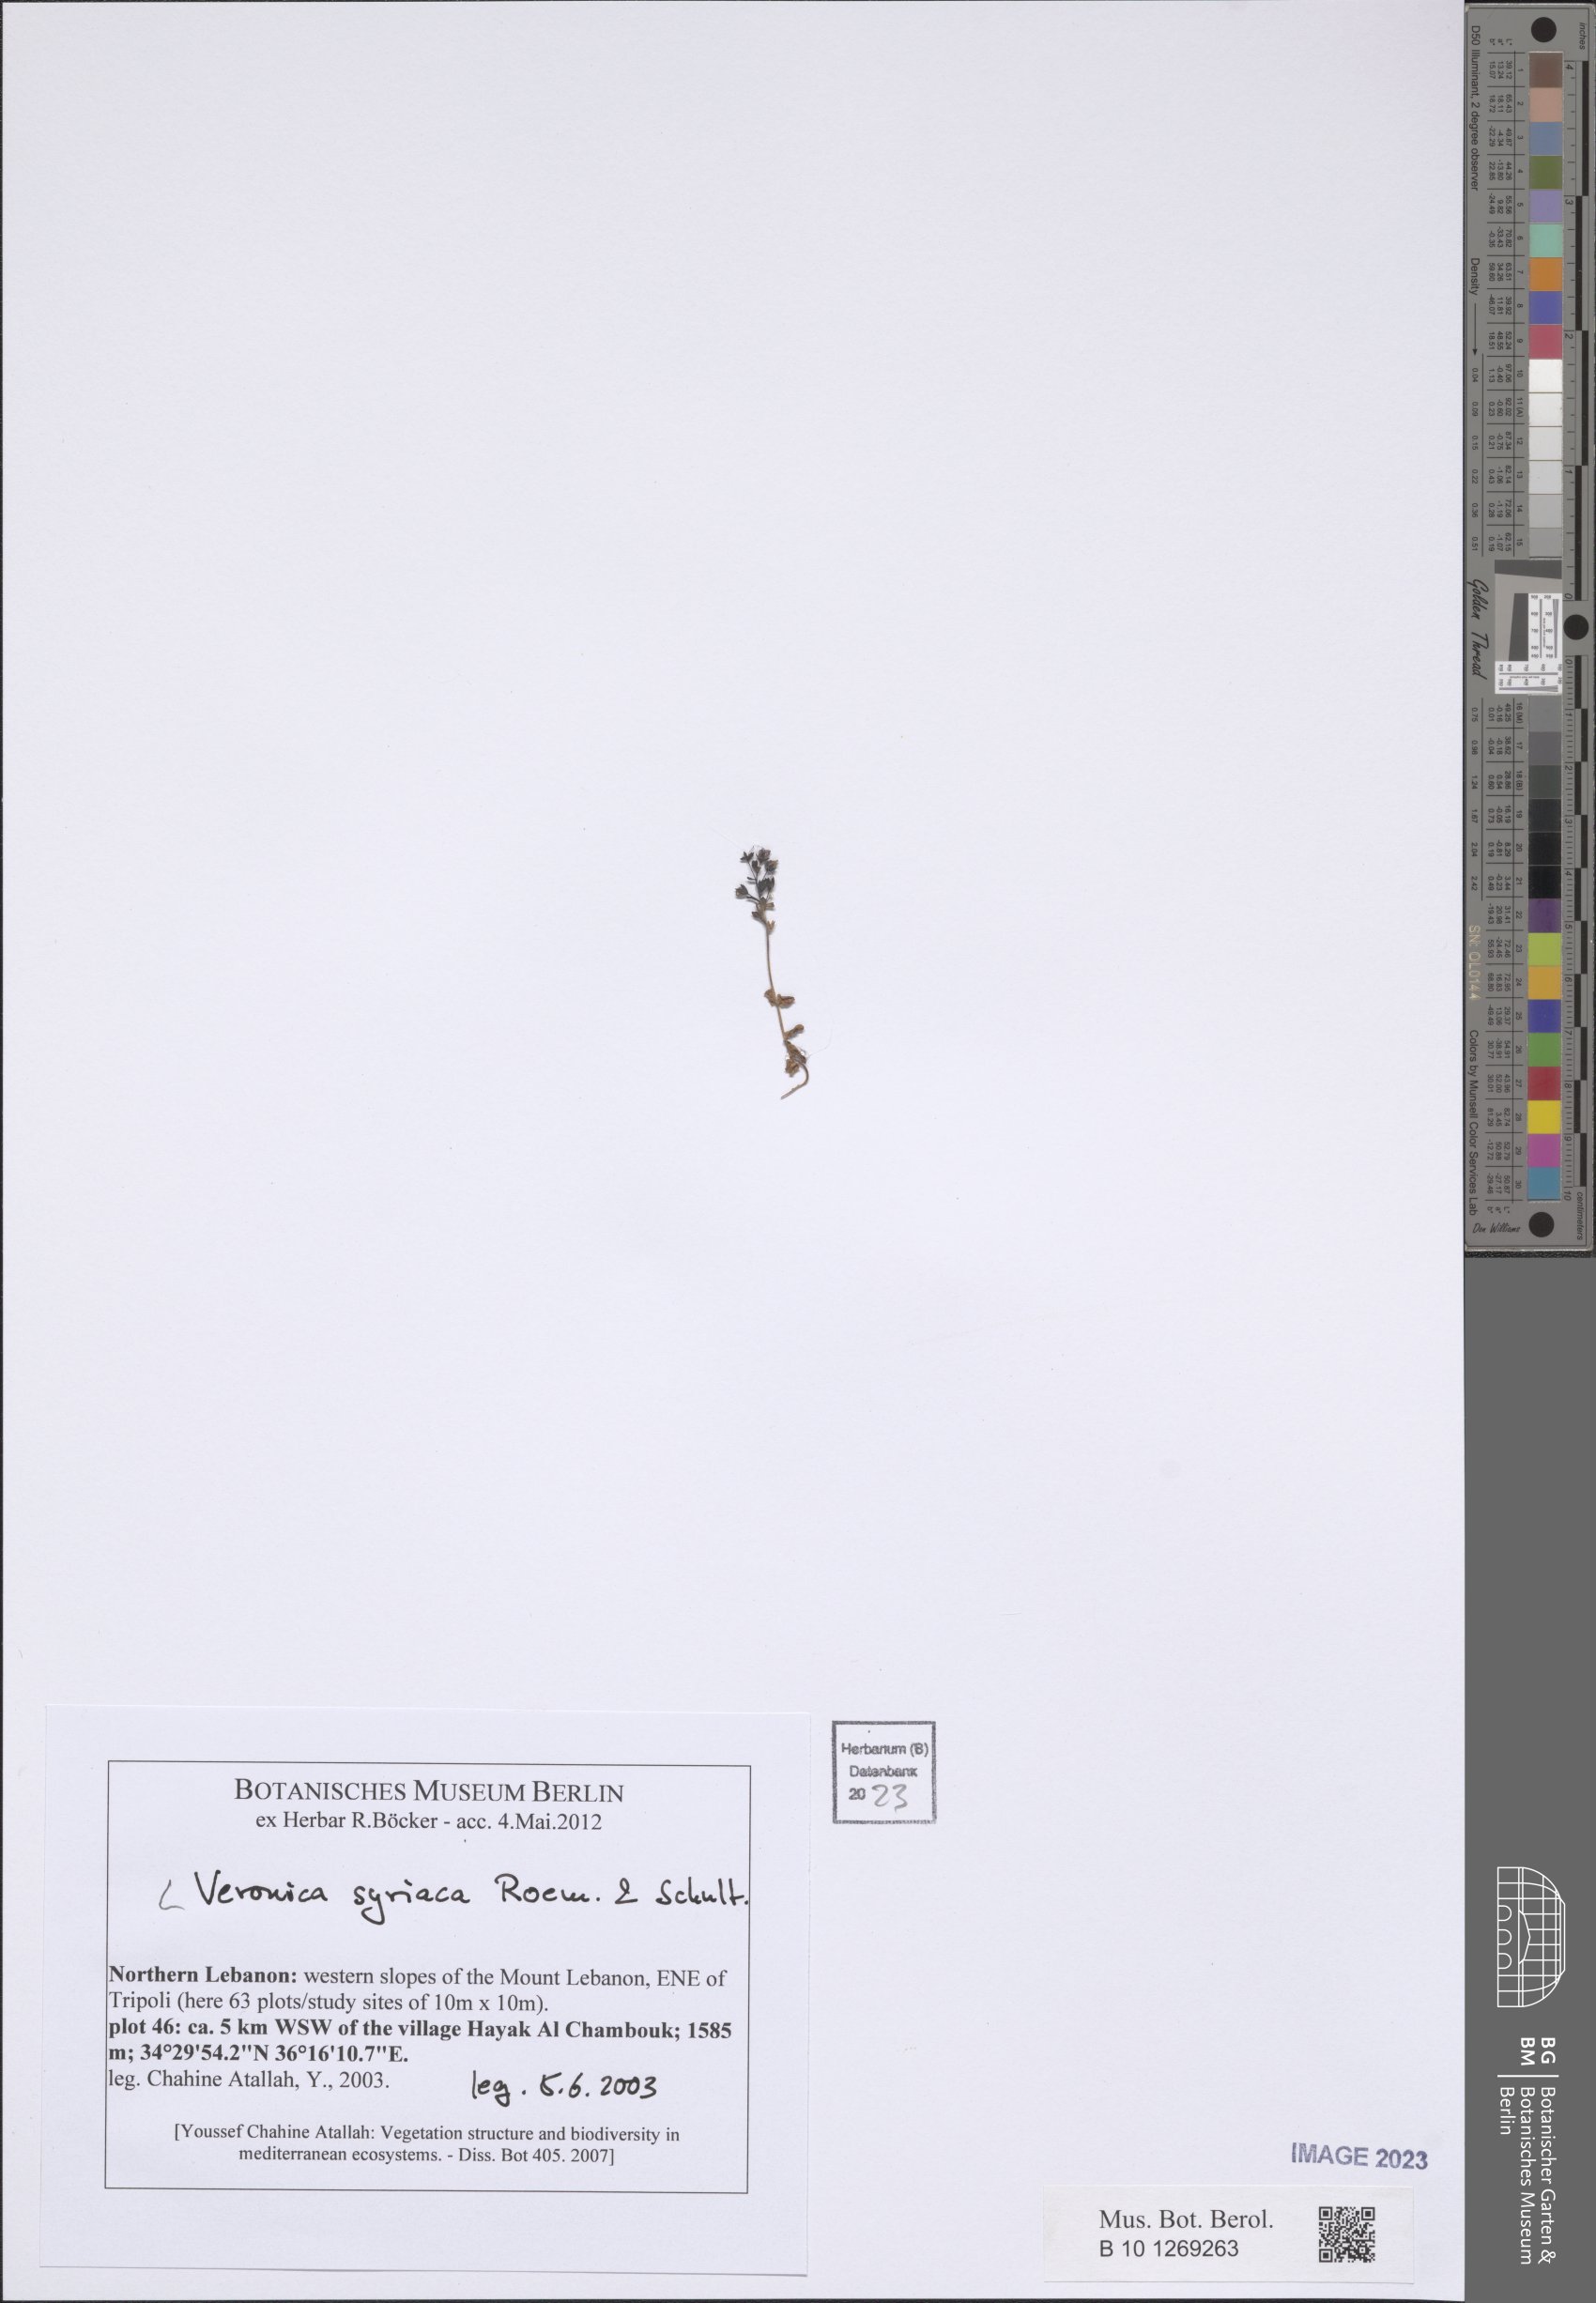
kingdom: Plantae
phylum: Tracheophyta
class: Magnoliopsida
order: Lamiales
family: Plantaginaceae
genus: Veronica
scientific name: Veronica syriaca
